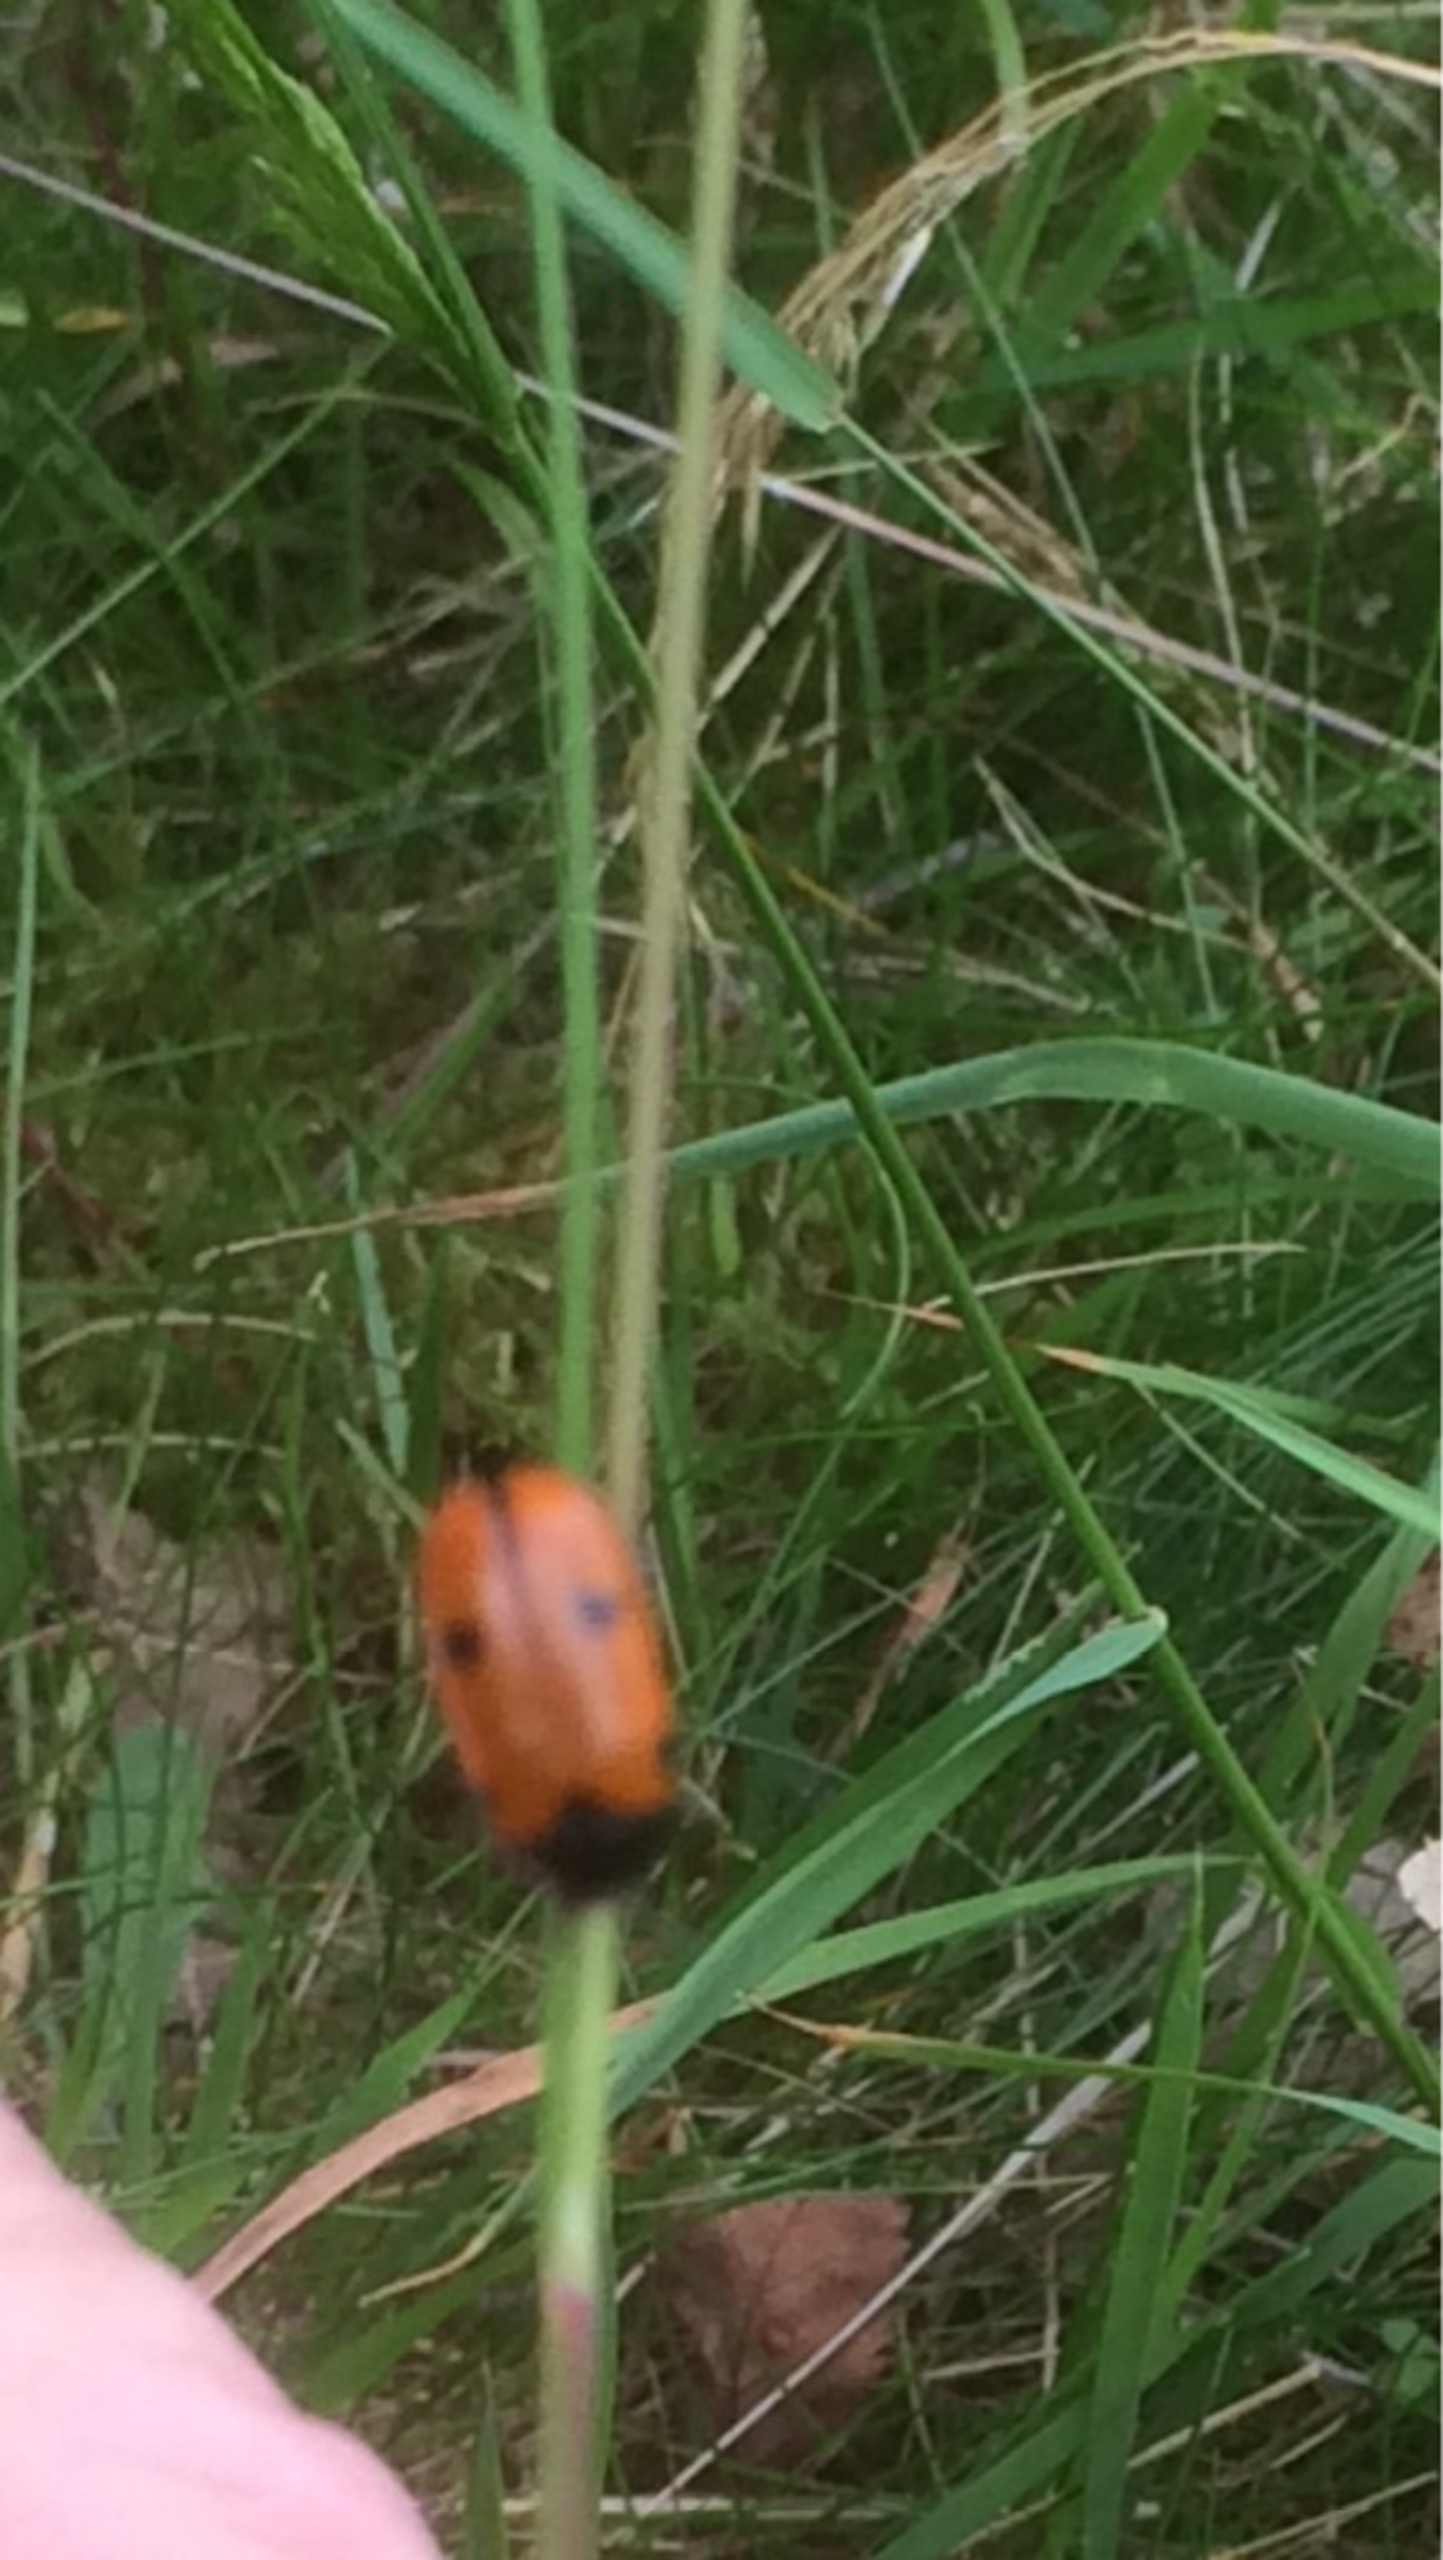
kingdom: Animalia
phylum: Arthropoda
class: Insecta
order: Coleoptera
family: Chrysomelidae
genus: Clytra
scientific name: Clytra quadripunctata
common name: Myrebladbille
